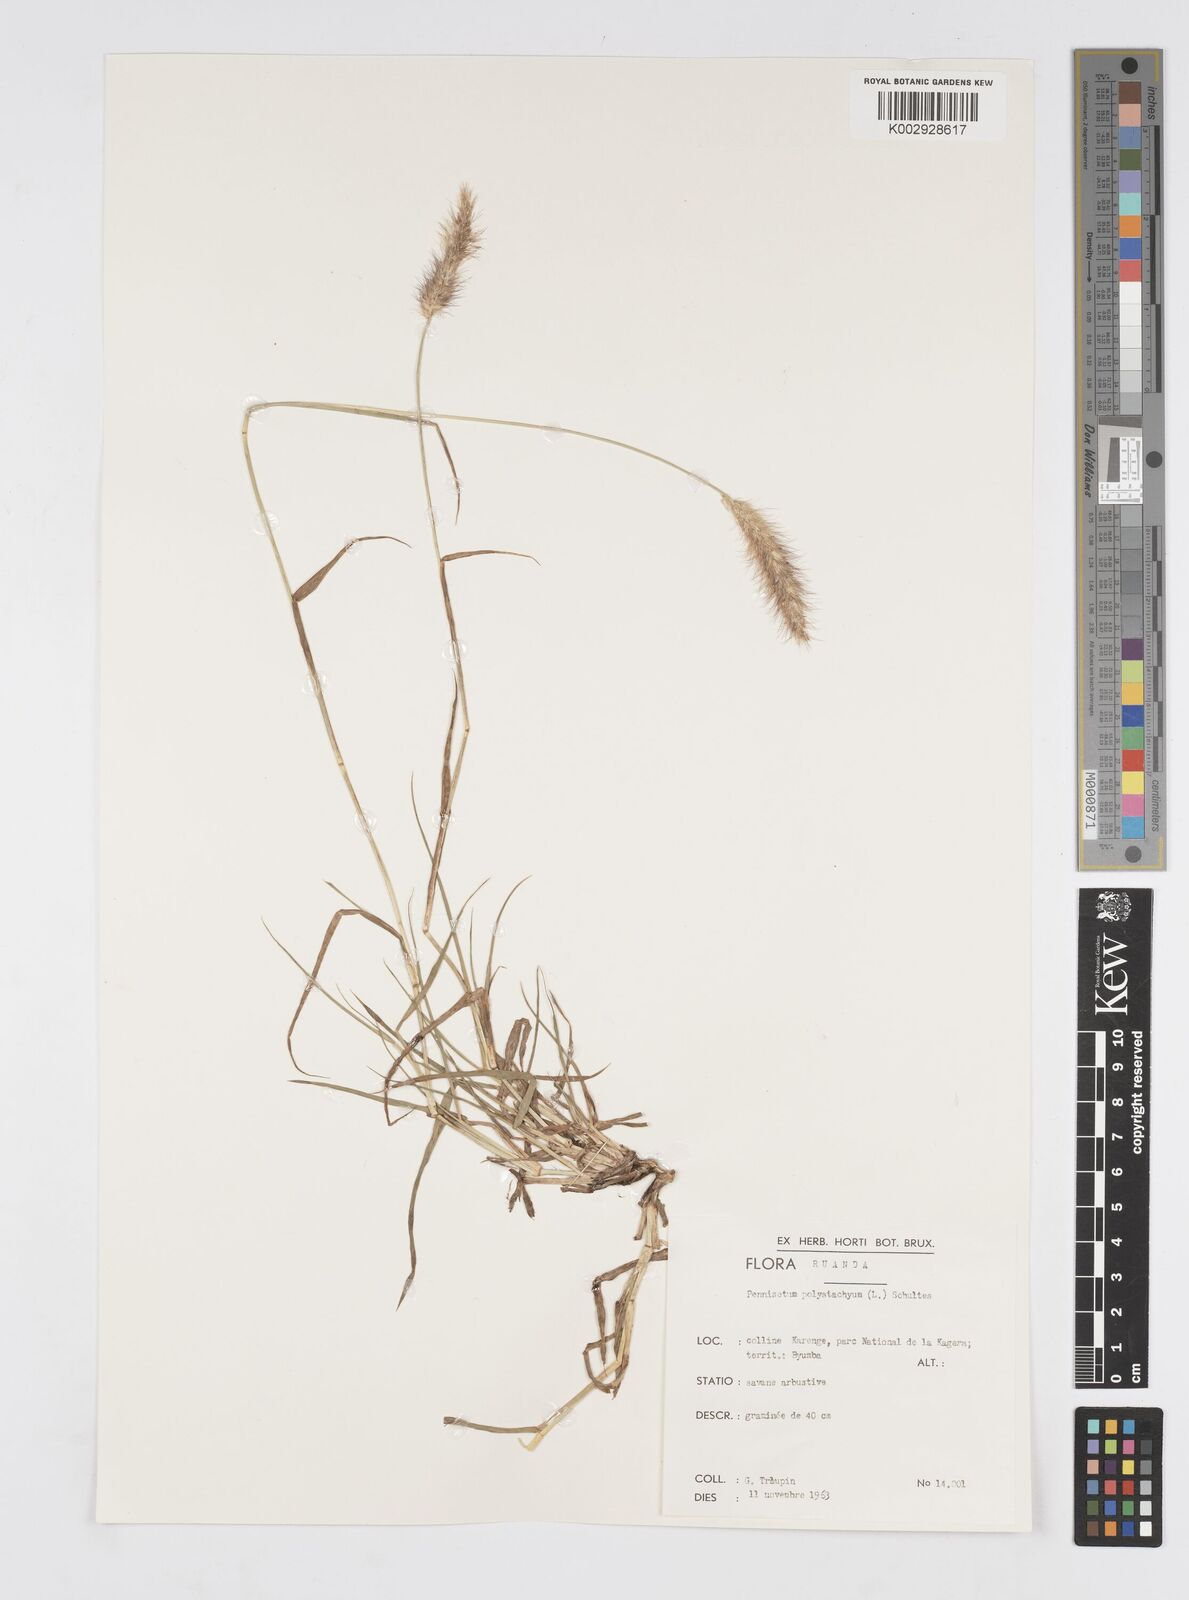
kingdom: Plantae
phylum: Tracheophyta
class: Liliopsida
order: Poales
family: Poaceae
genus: Cenchrus
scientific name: Cenchrus ciliaris
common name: Buffelgrass
